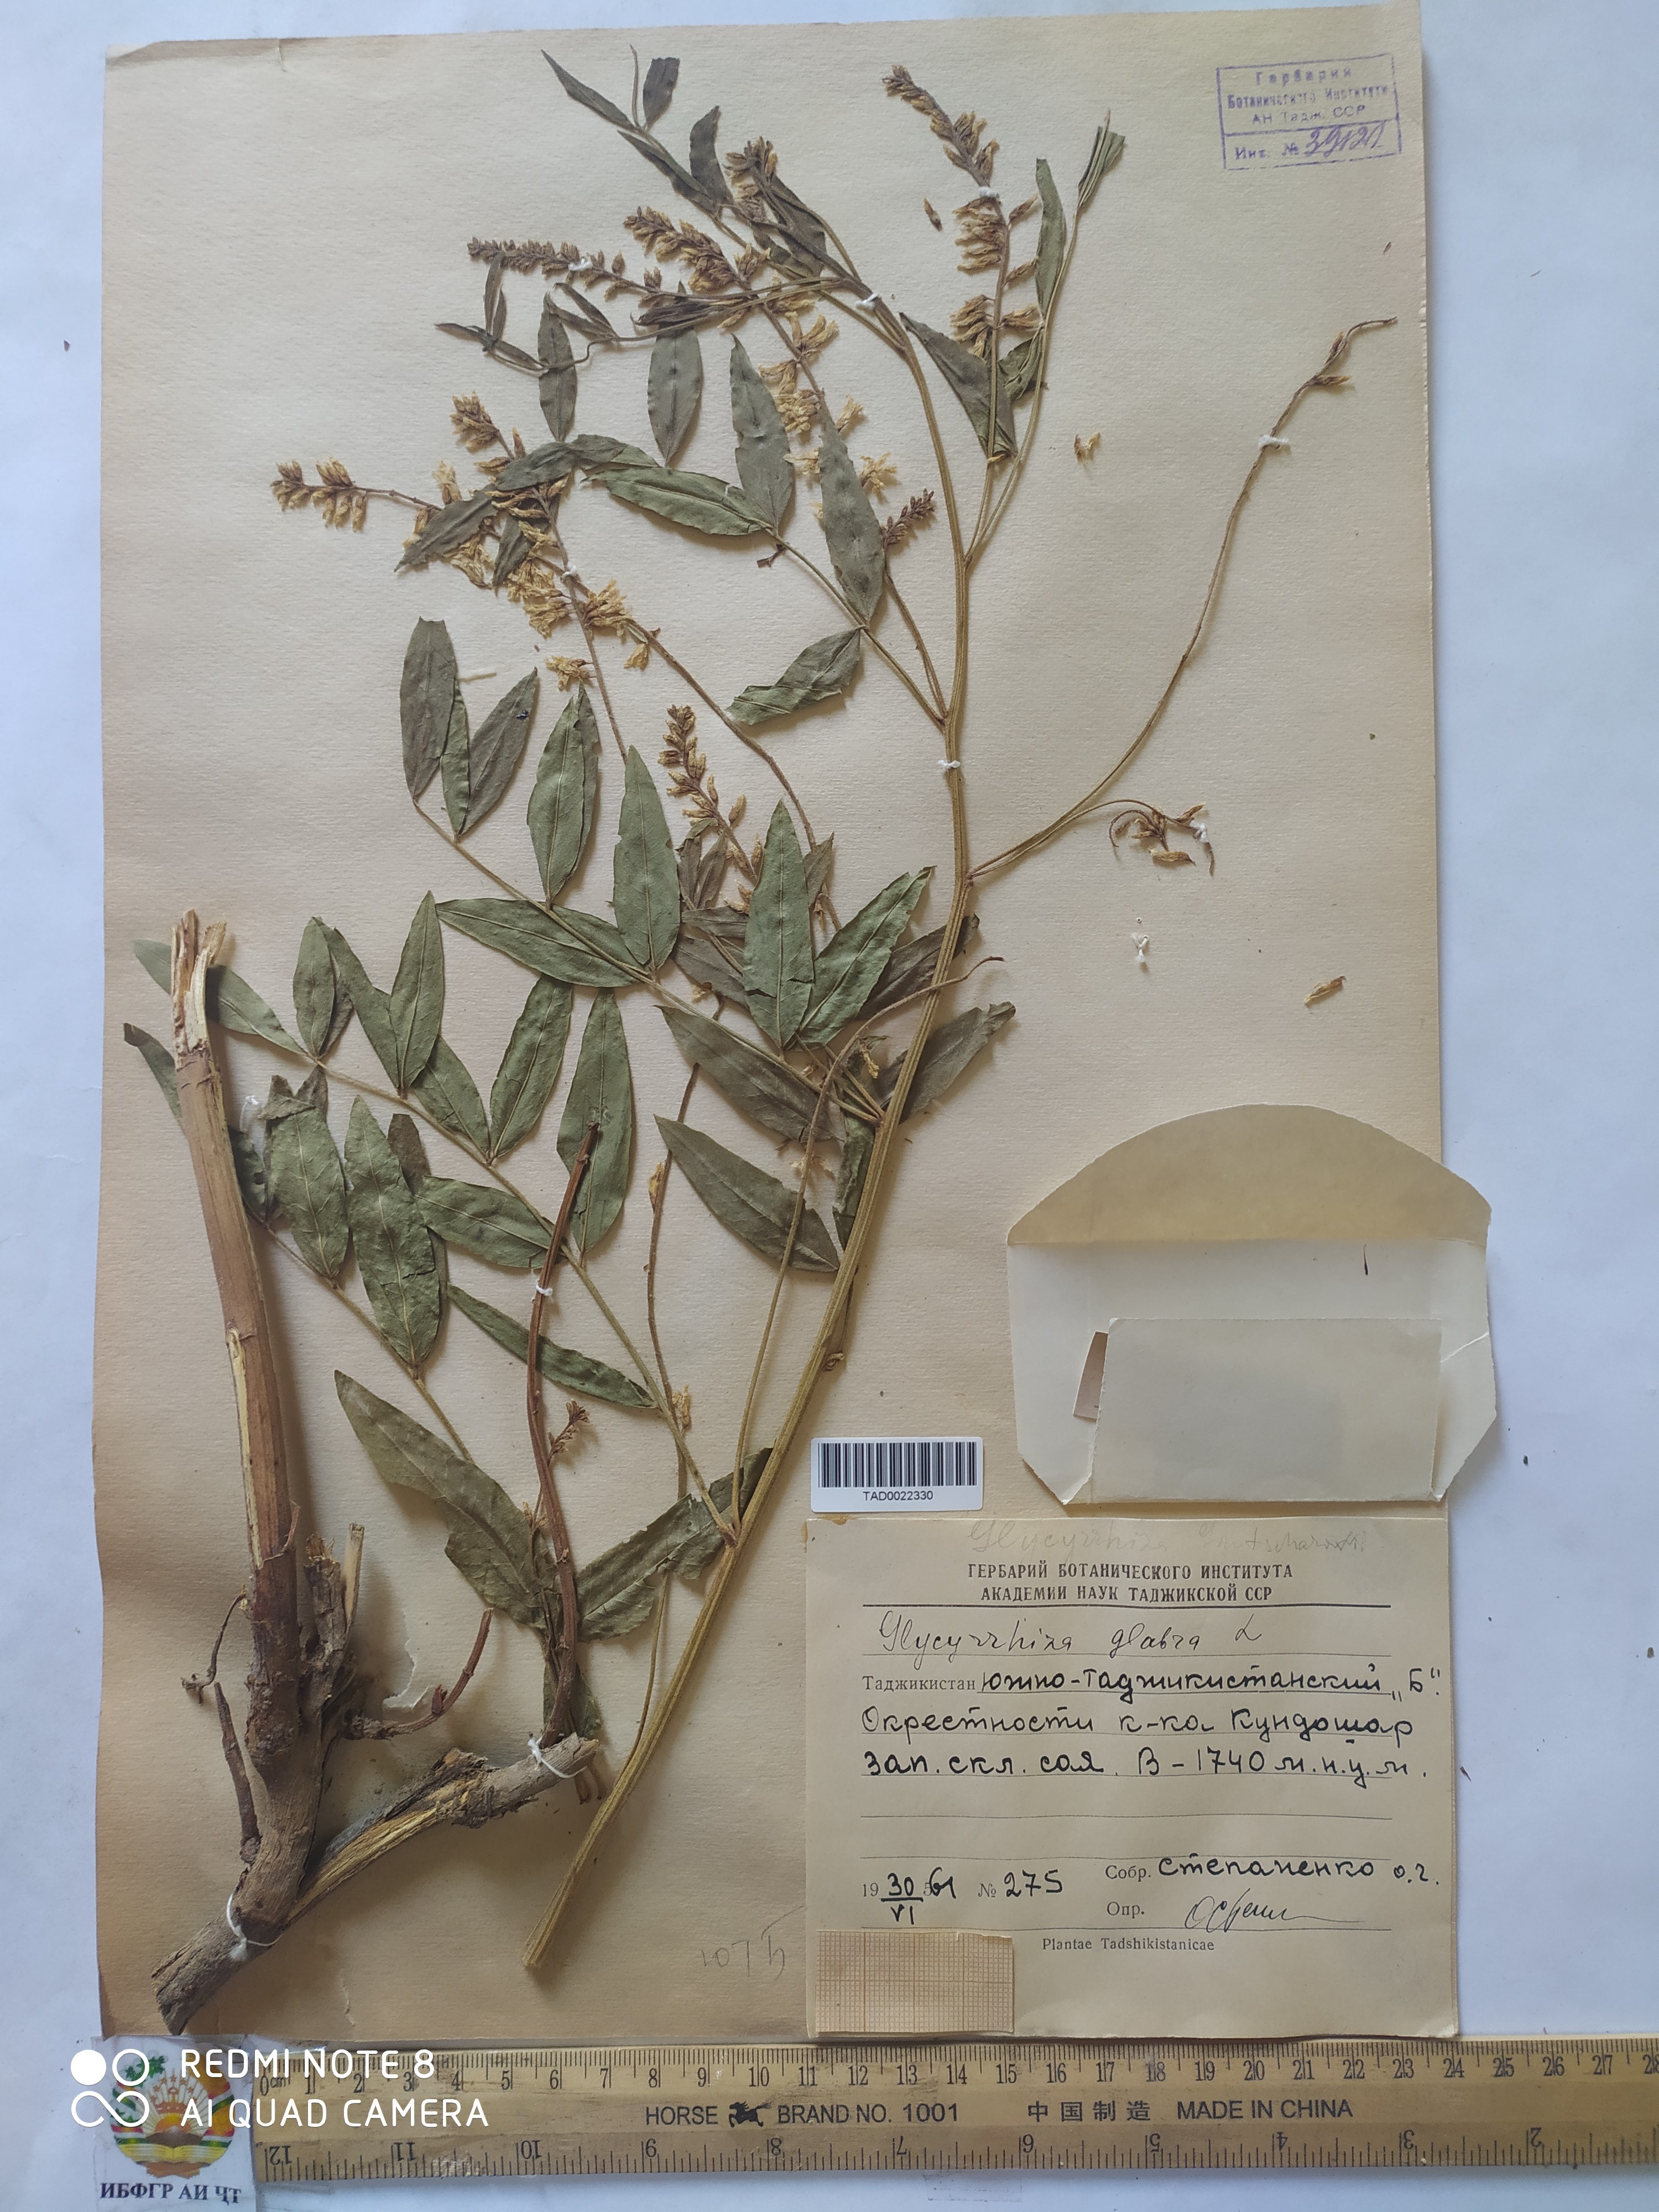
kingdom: Plantae
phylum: Tracheophyta
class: Magnoliopsida
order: Fabales
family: Fabaceae
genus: Glycyrrhiza
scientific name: Glycyrrhiza glabra
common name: Liquorice
